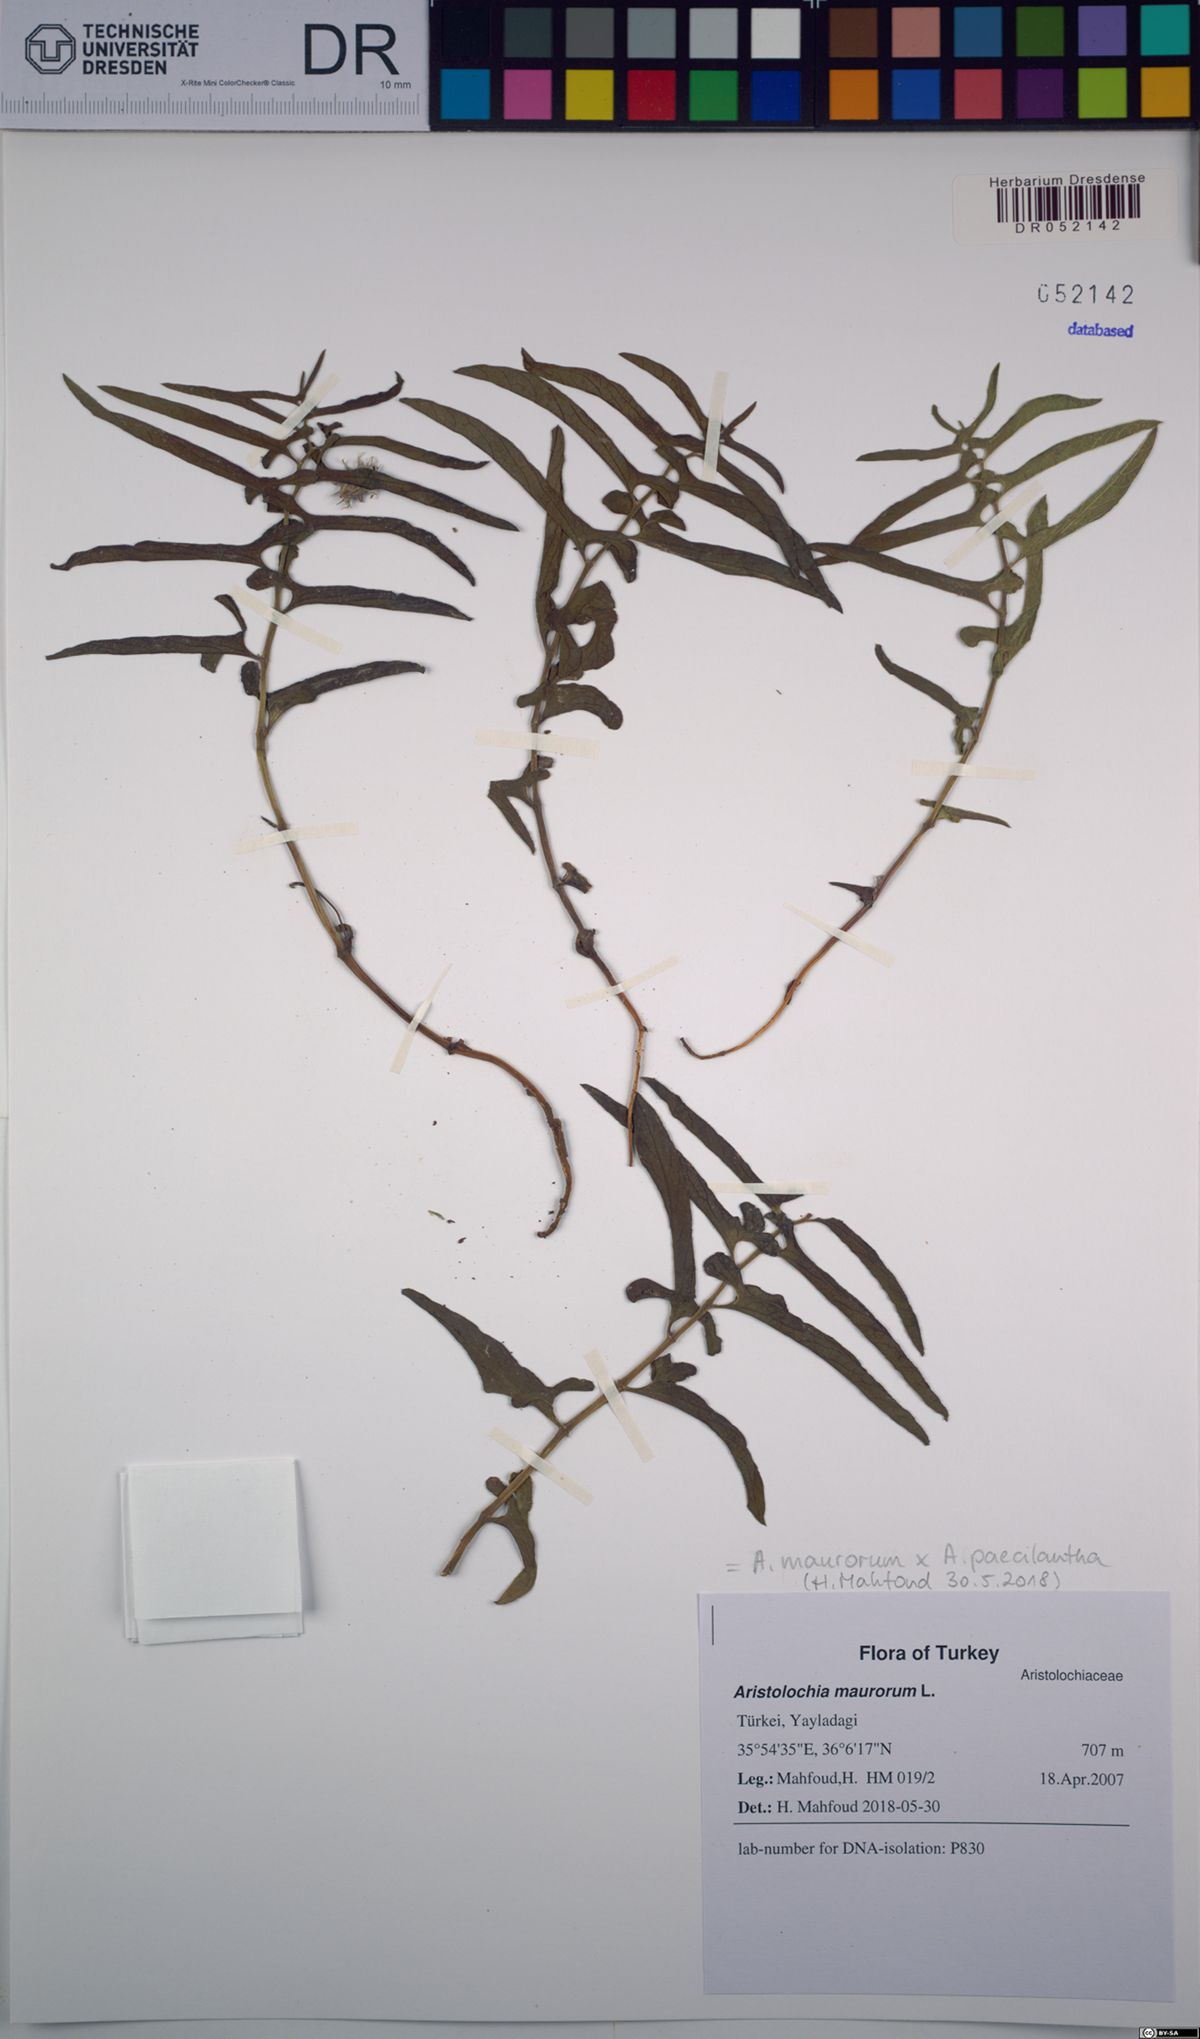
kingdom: Plantae
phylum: Tracheophyta
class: Magnoliopsida
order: Piperales
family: Aristolochiaceae
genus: Aristolochia
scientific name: Aristolochia maurorum
